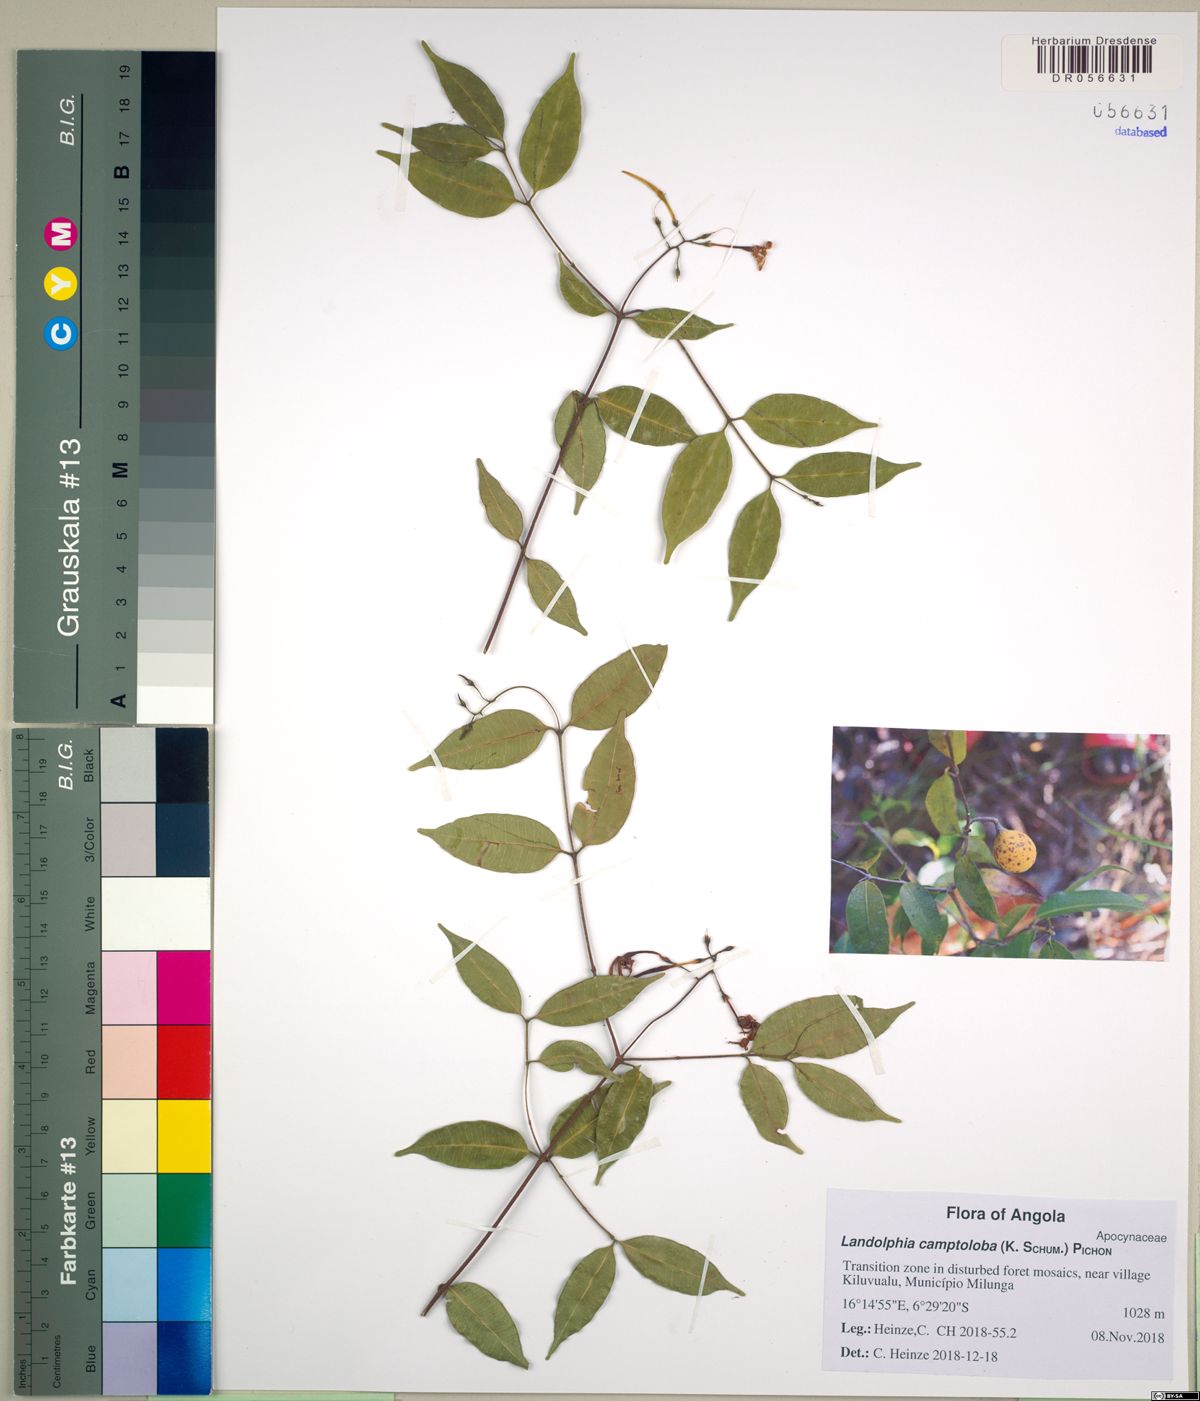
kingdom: Plantae
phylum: Tracheophyta
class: Magnoliopsida
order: Gentianales
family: Apocynaceae
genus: Landolphia
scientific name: Landolphia camptoloba
